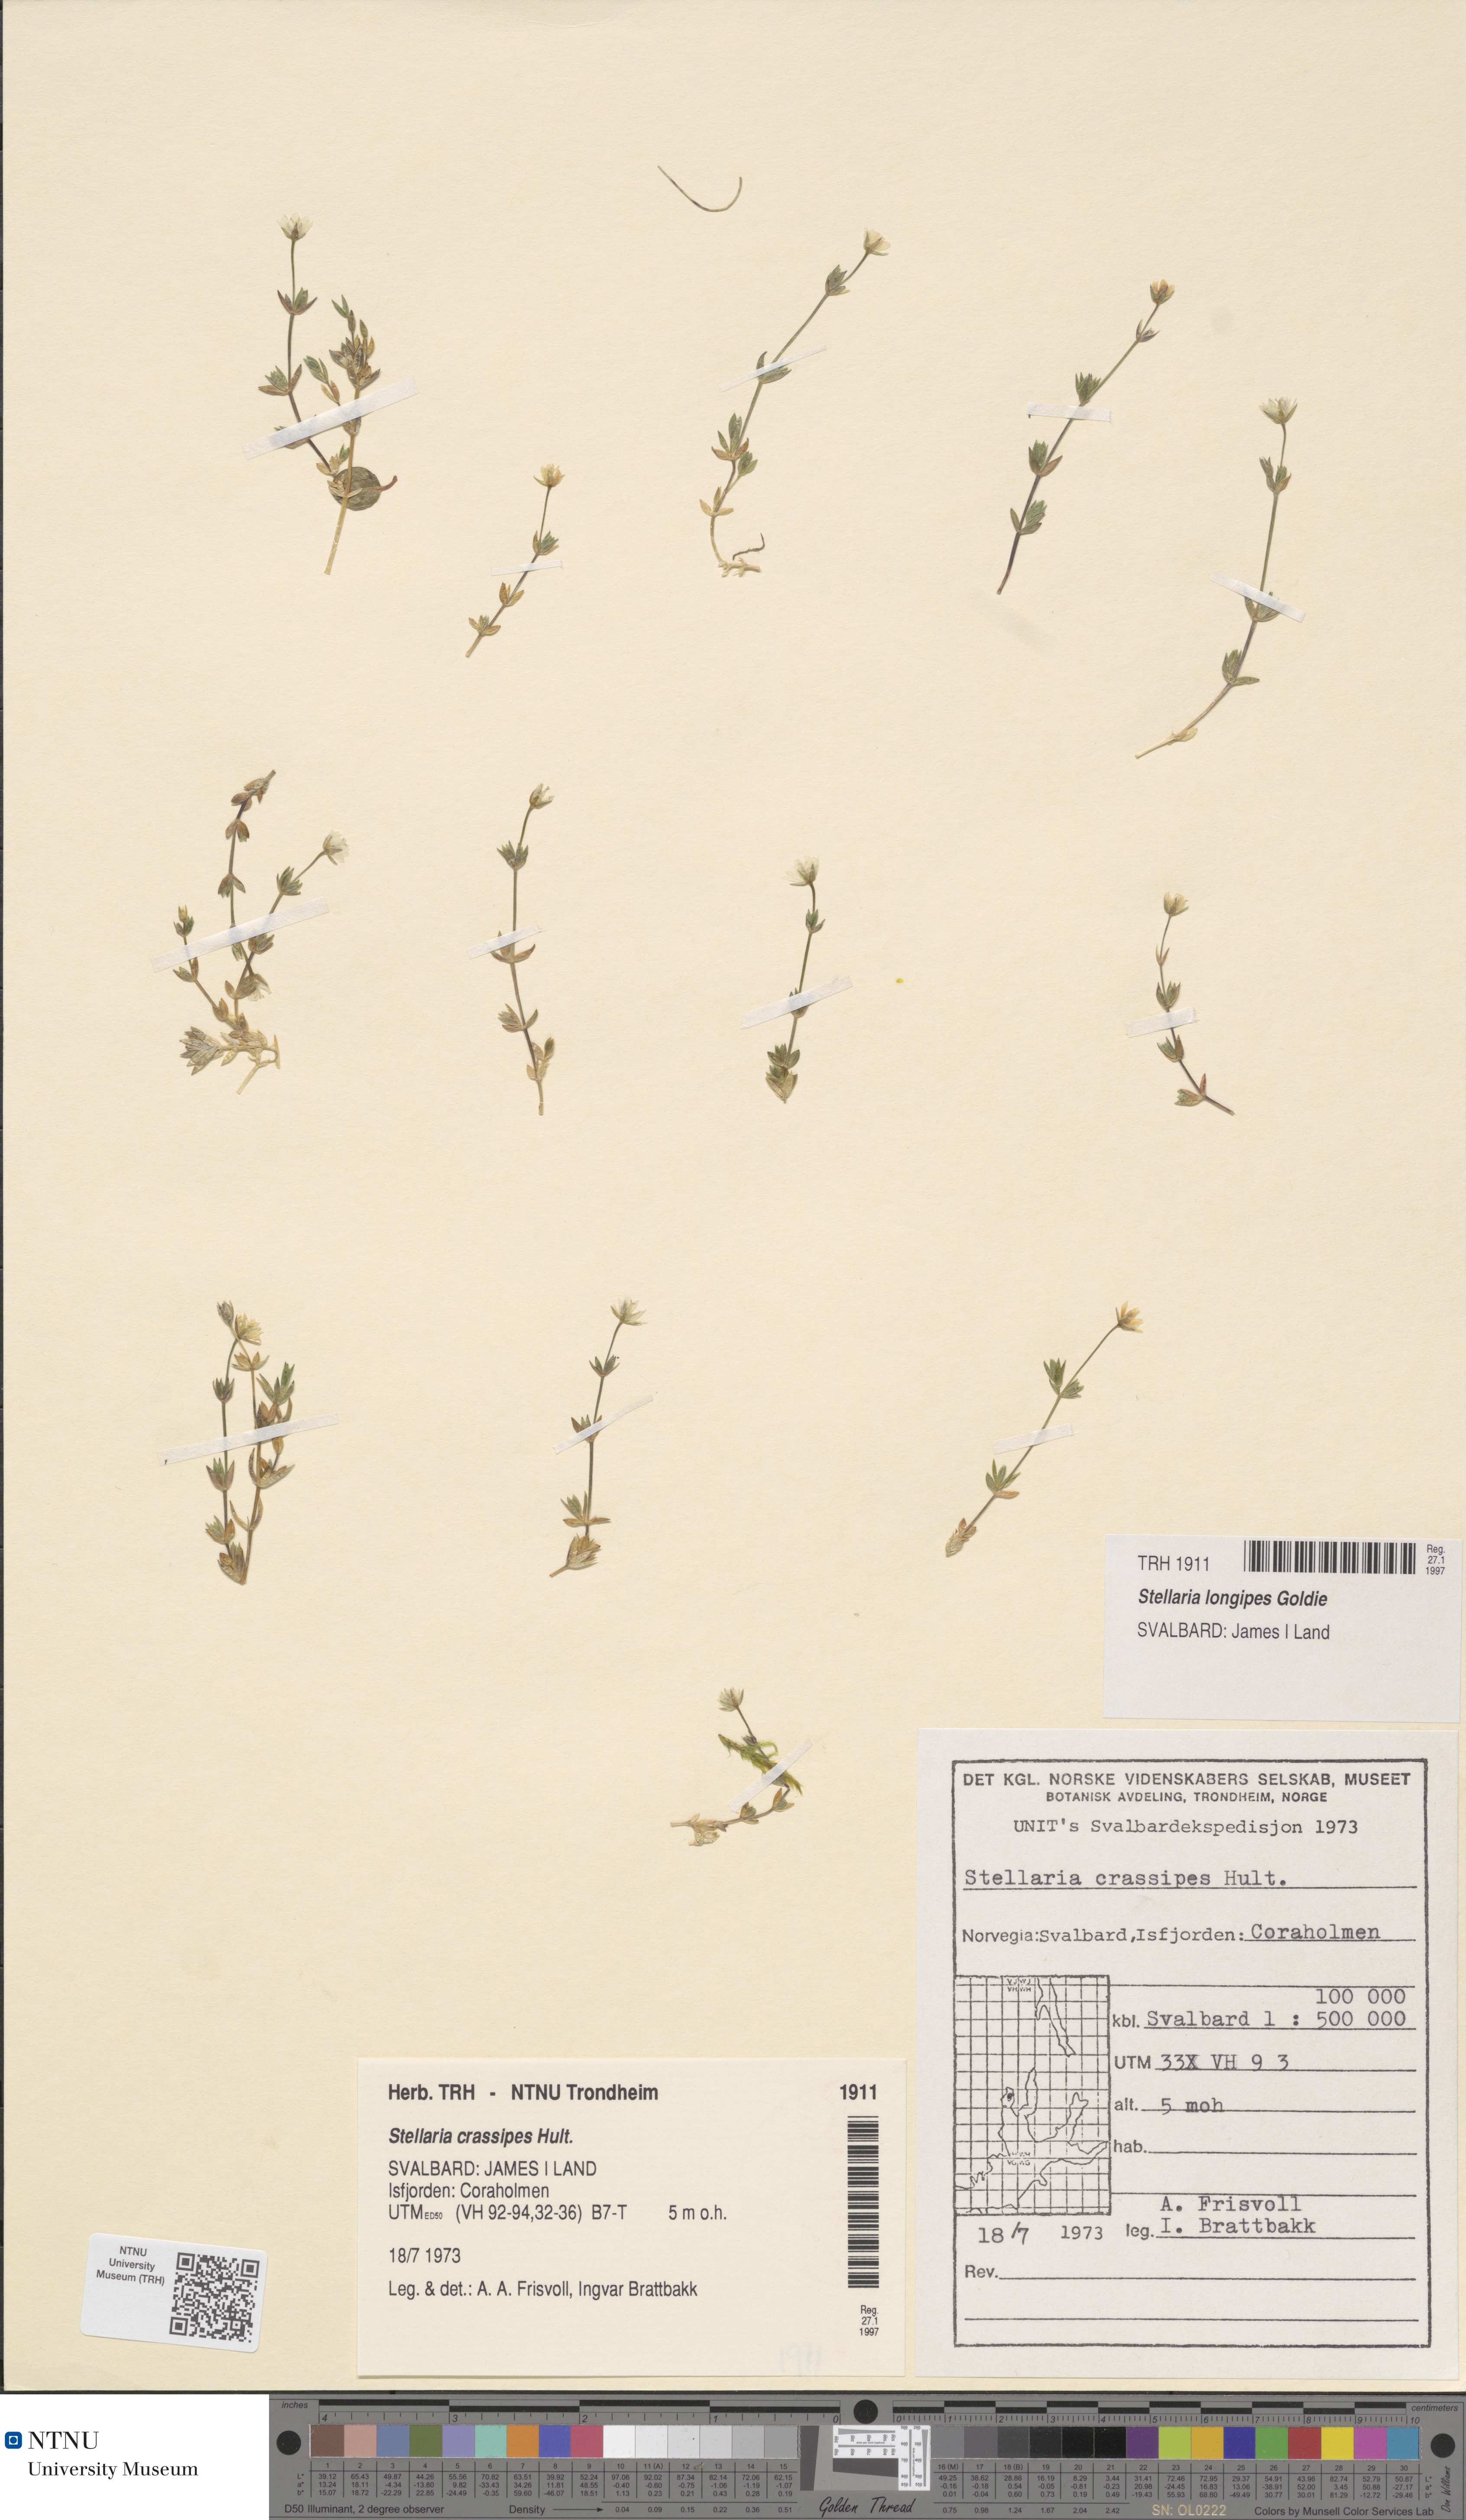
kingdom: Plantae
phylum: Tracheophyta
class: Magnoliopsida
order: Caryophyllales
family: Caryophyllaceae
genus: Stellaria
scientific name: Stellaria longipes
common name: Goldie's starwort
